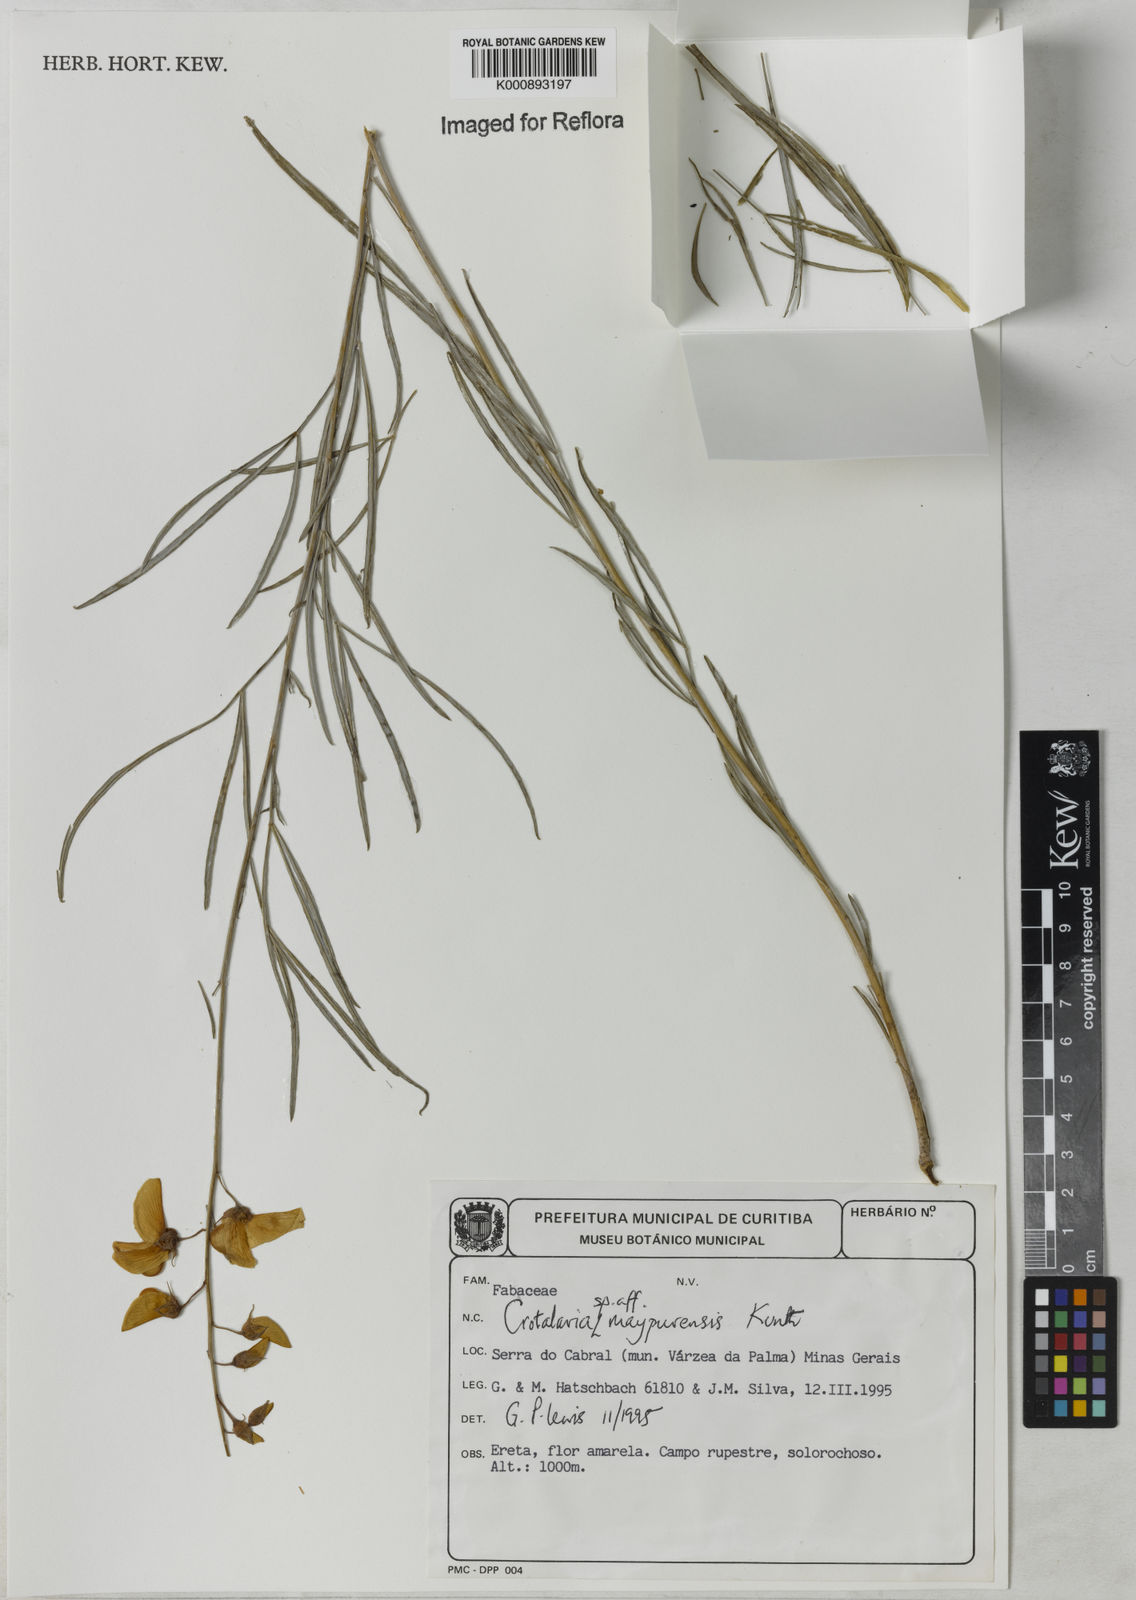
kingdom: Plantae
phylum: Tracheophyta
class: Magnoliopsida
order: Fabales
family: Fabaceae
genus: Crotalaria
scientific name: Crotalaria maypurensis
